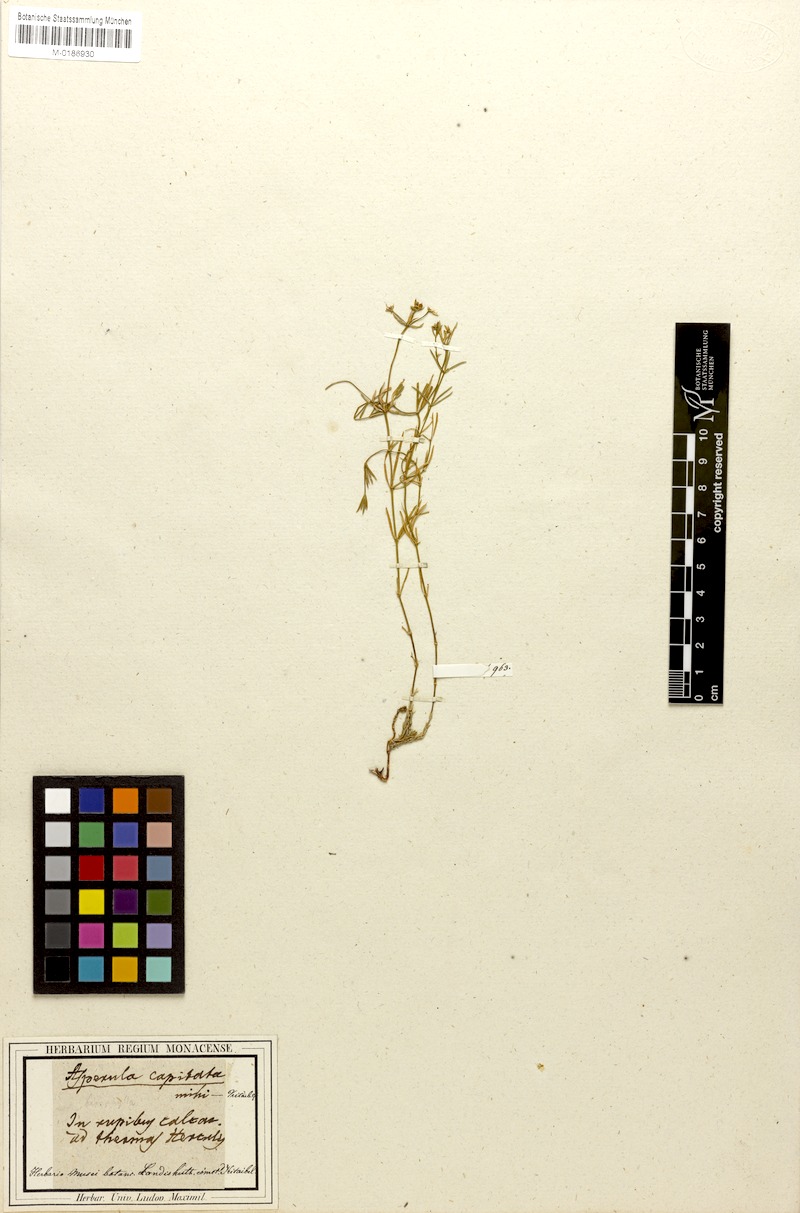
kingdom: Plantae
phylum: Tracheophyta
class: Magnoliopsida
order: Gentianales
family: Rubiaceae
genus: Hexaphylla
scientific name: Hexaphylla capitata
